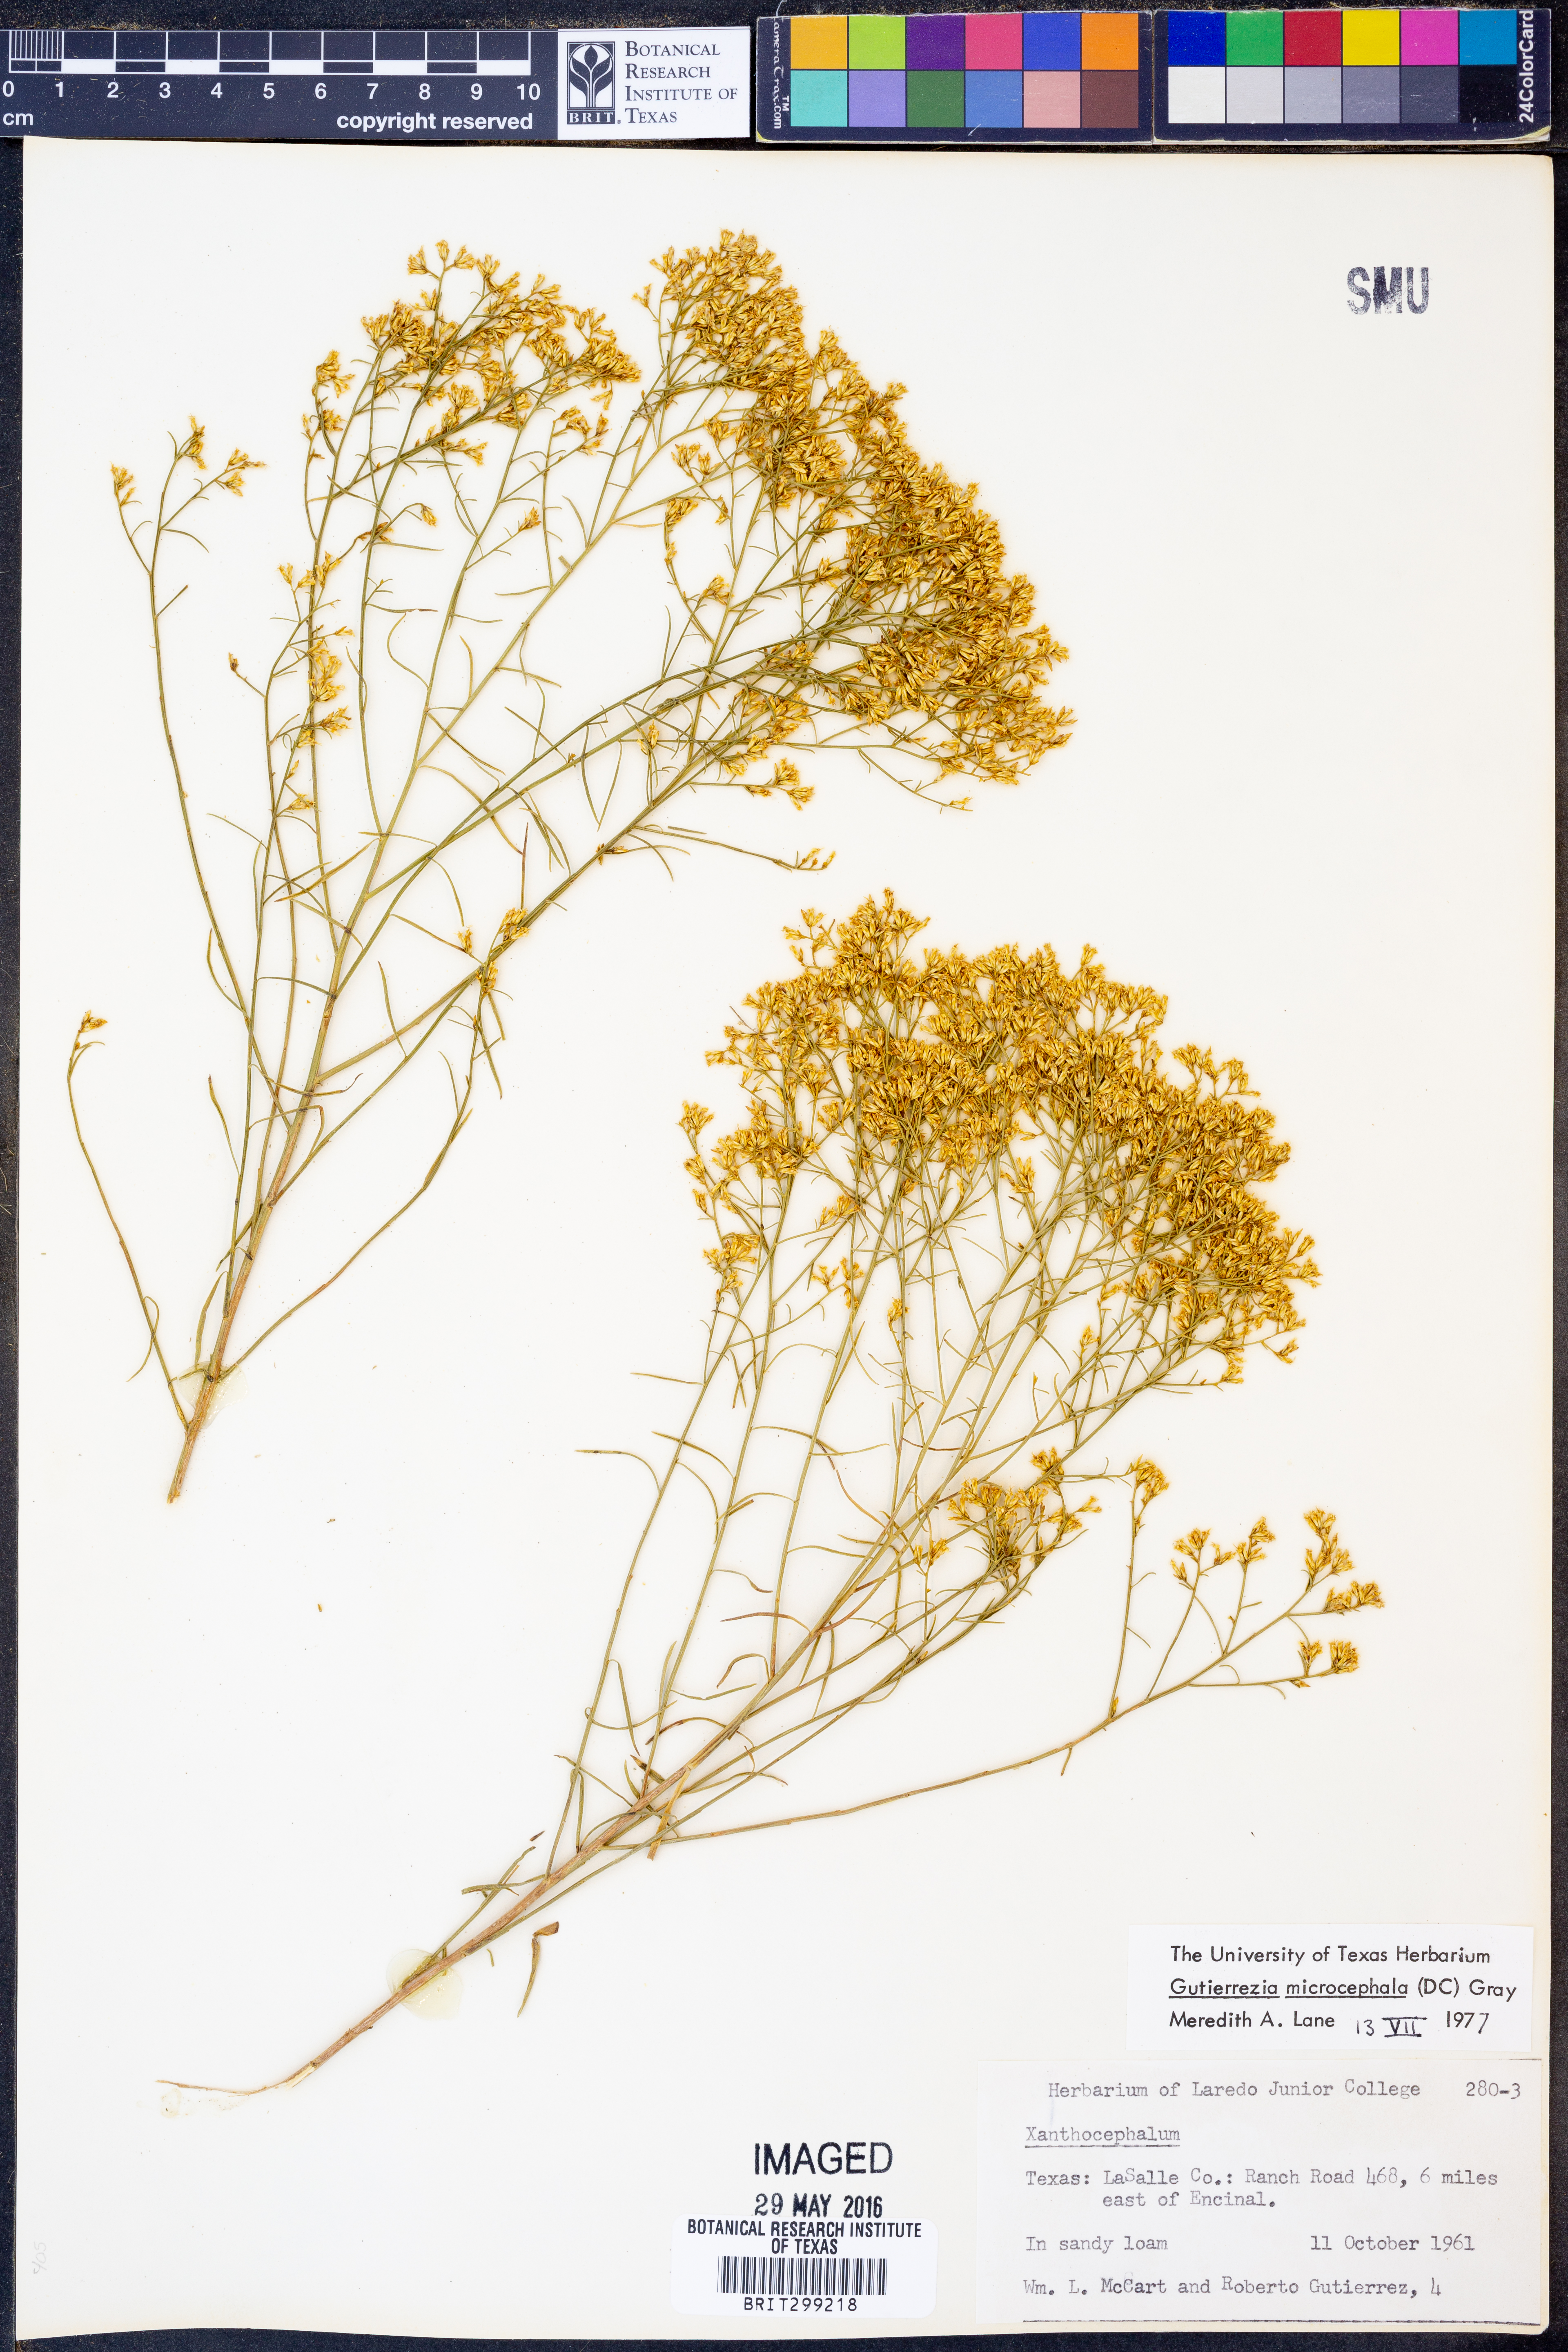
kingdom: Plantae
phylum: Tracheophyta
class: Magnoliopsida
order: Asterales
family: Asteraceae
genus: Gutierrezia
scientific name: Gutierrezia microcephala
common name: Thread snakeweed
